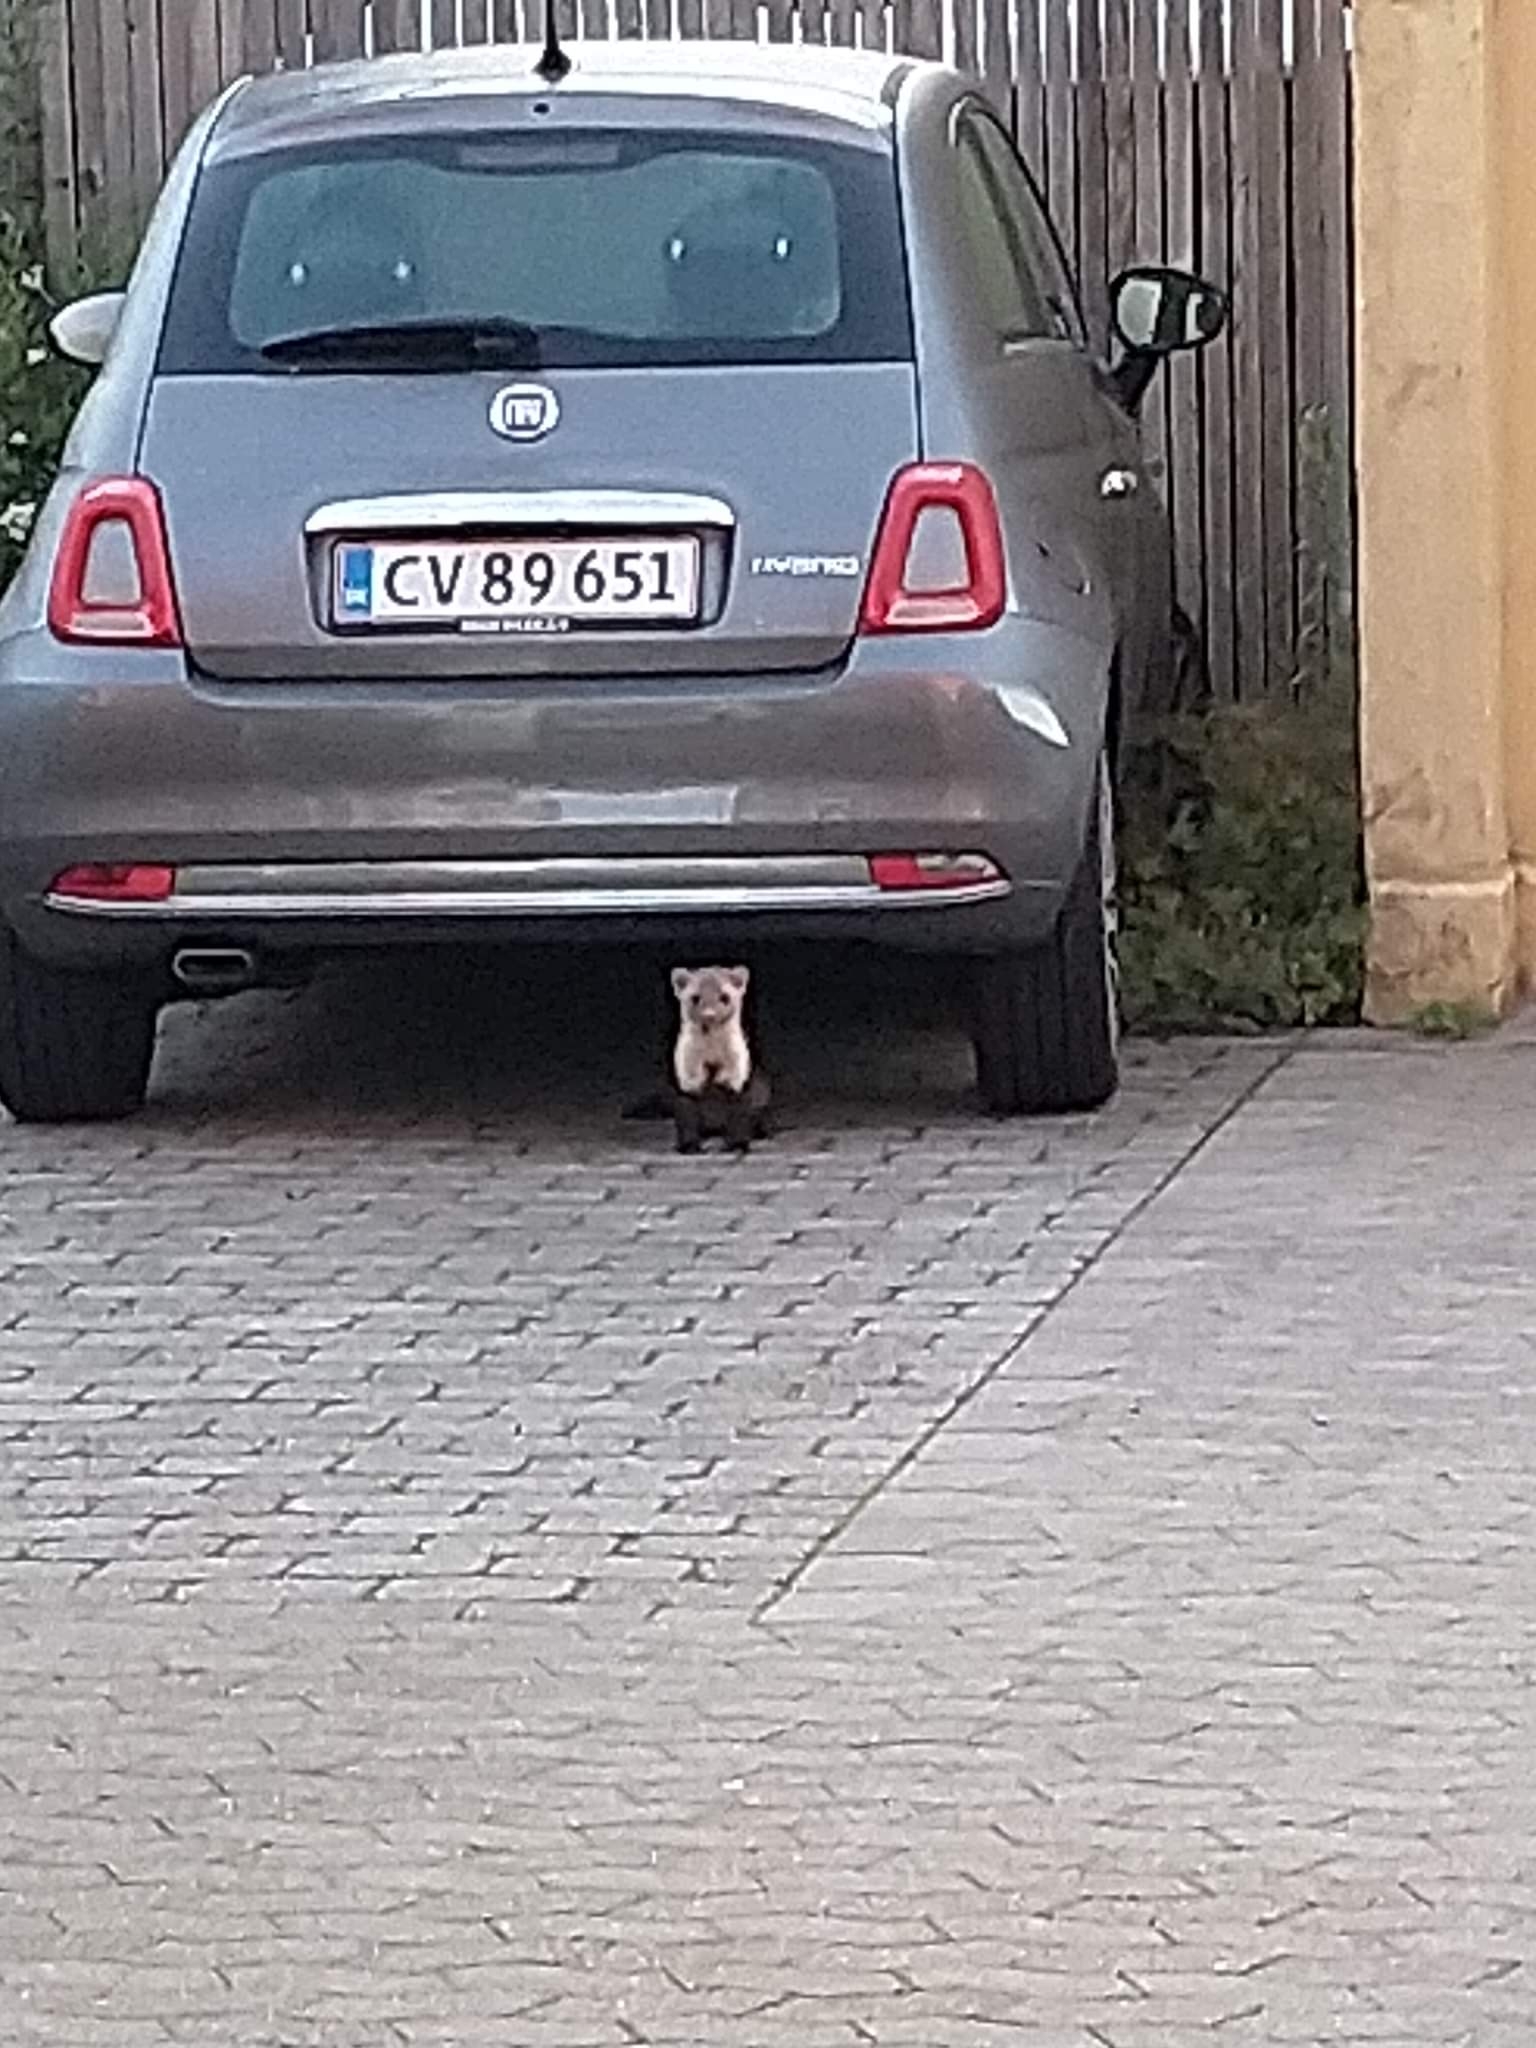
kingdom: Animalia
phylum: Chordata
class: Mammalia
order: Carnivora
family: Mustelidae
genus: Martes
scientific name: Martes foina
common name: Husmår
